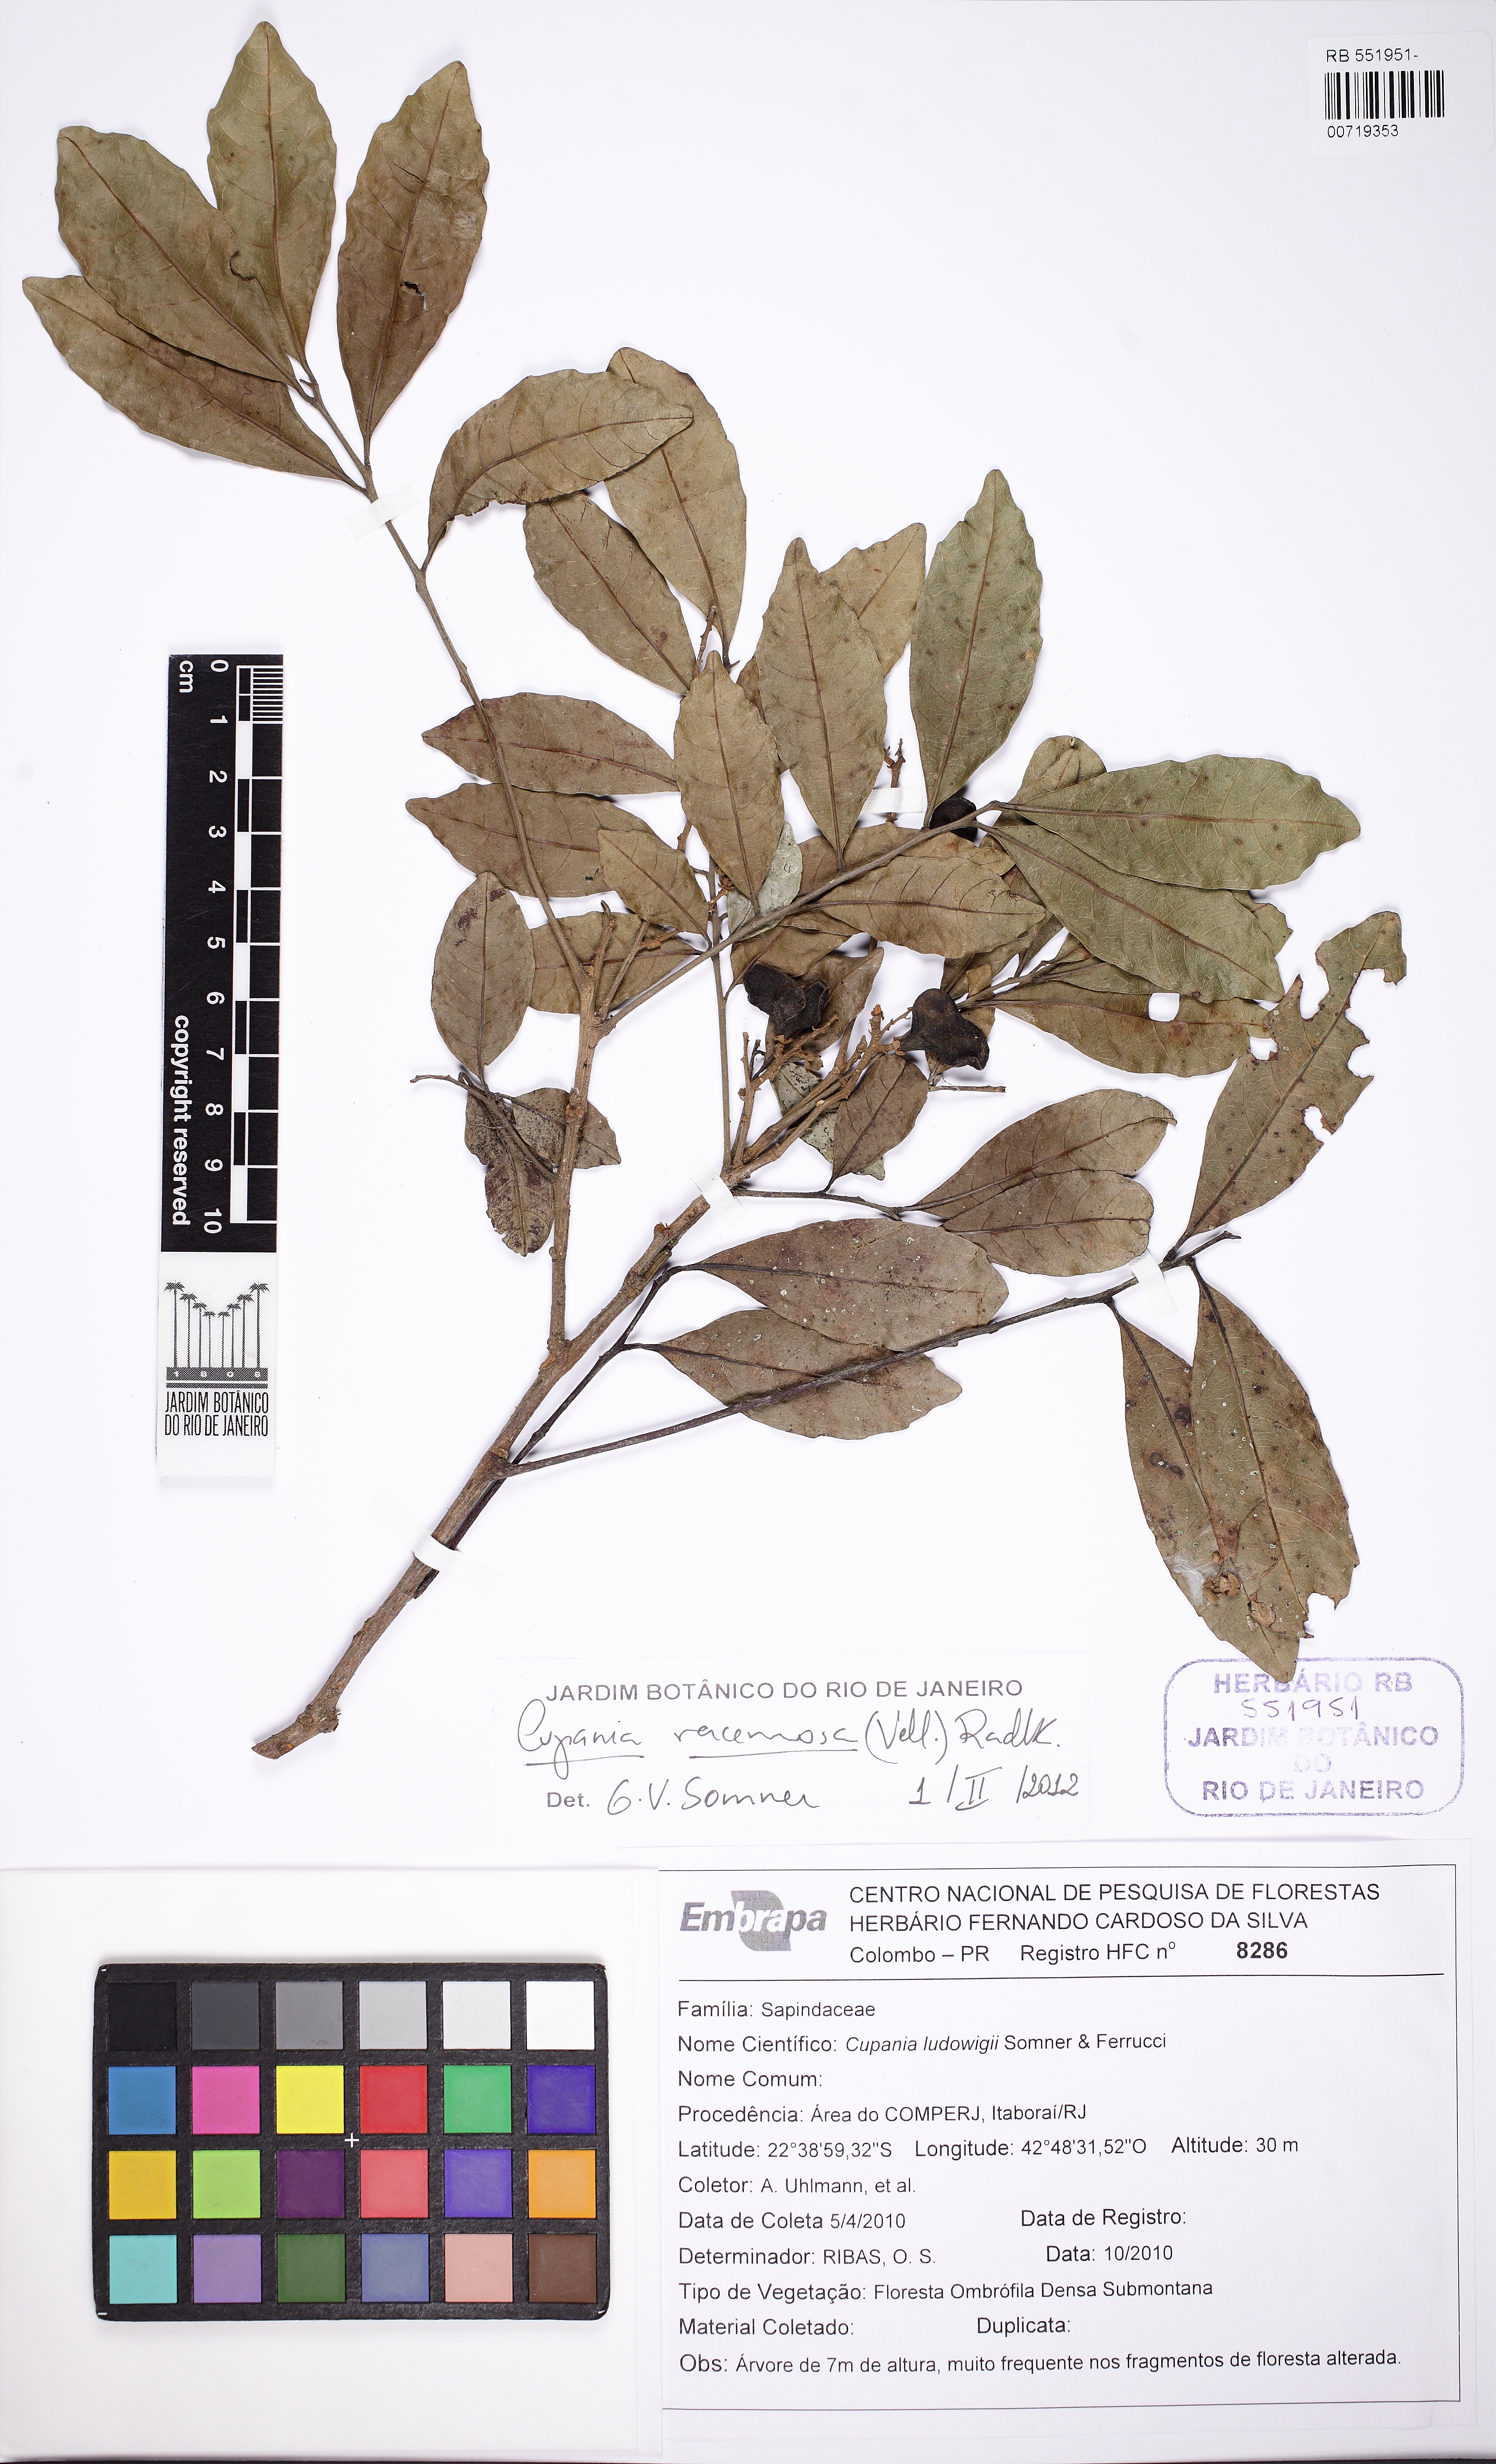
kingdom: Plantae
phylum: Tracheophyta
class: Magnoliopsida
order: Sapindales
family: Sapindaceae
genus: Cupania
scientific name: Cupania racemosa
